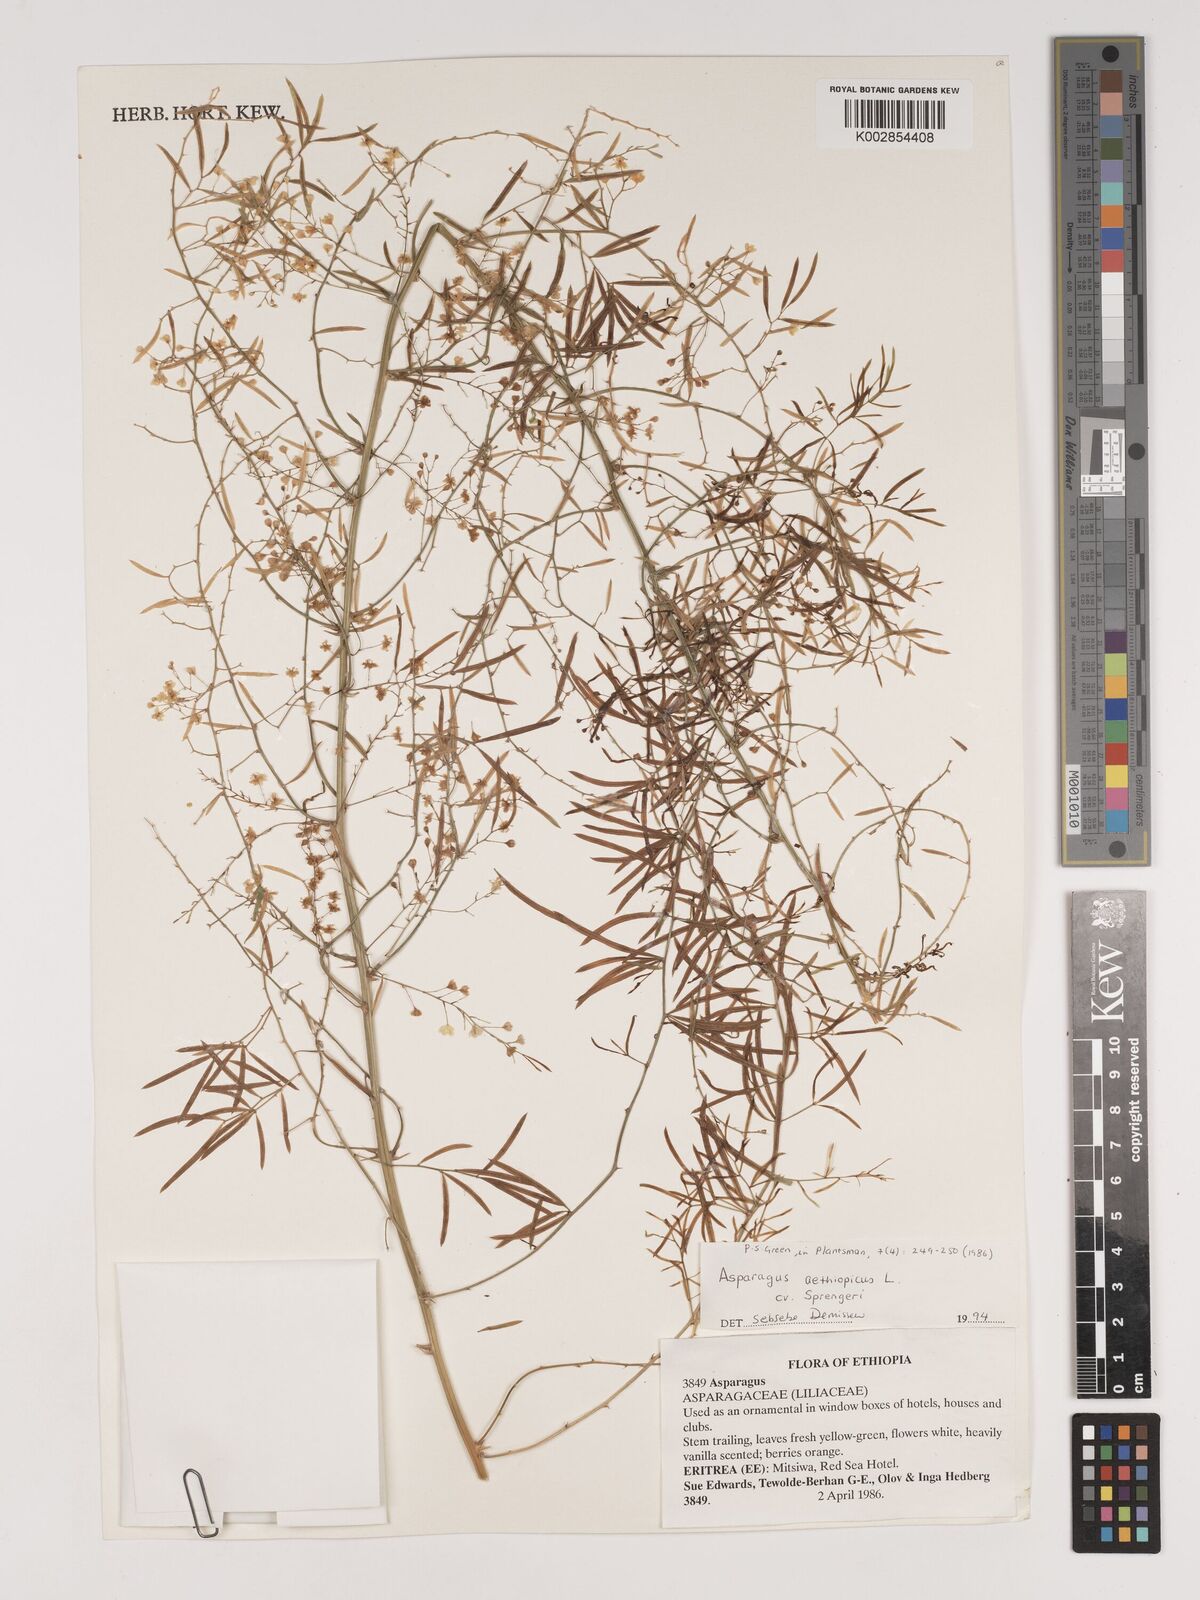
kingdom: Plantae
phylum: Tracheophyta
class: Liliopsida
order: Asparagales
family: Asparagaceae
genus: Asparagus
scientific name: Asparagus aethiopicus
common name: Sprenger's asparagus fern
